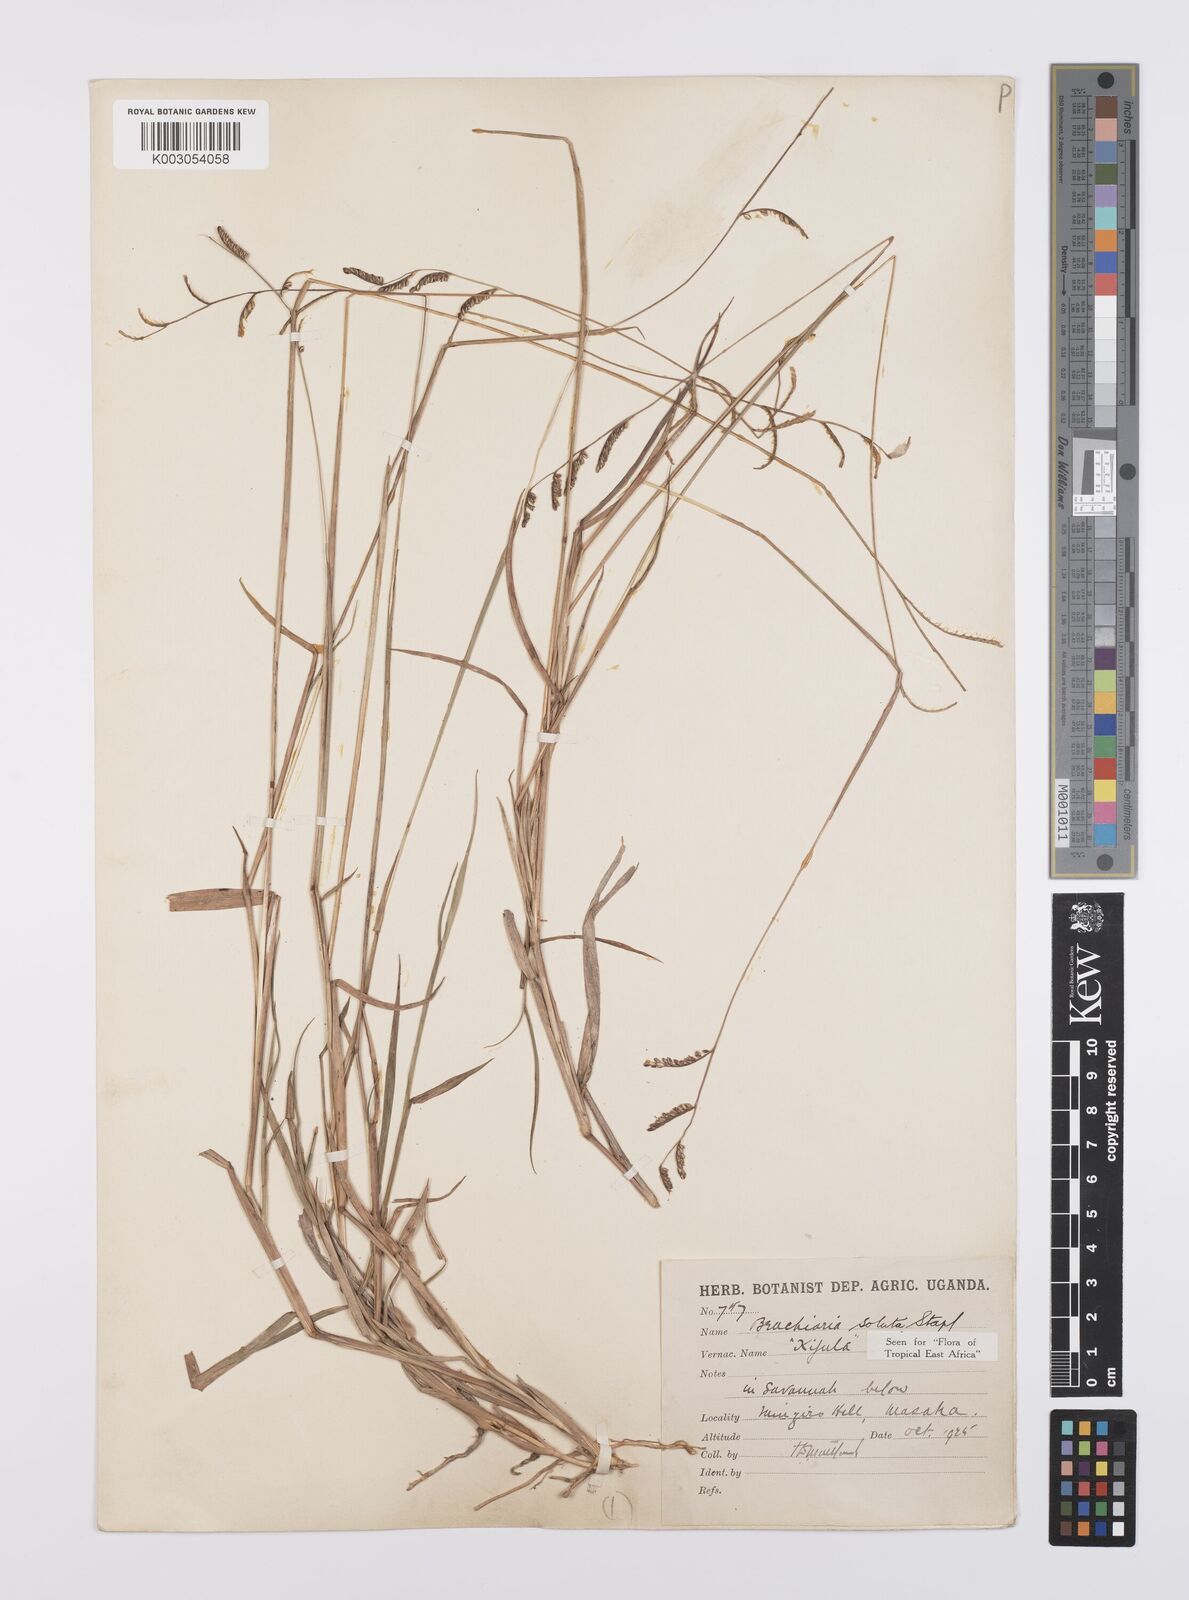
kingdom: Plantae
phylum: Tracheophyta
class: Liliopsida
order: Poales
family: Poaceae
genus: Urochloa
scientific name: Urochloa jubata
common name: Buffalograss
